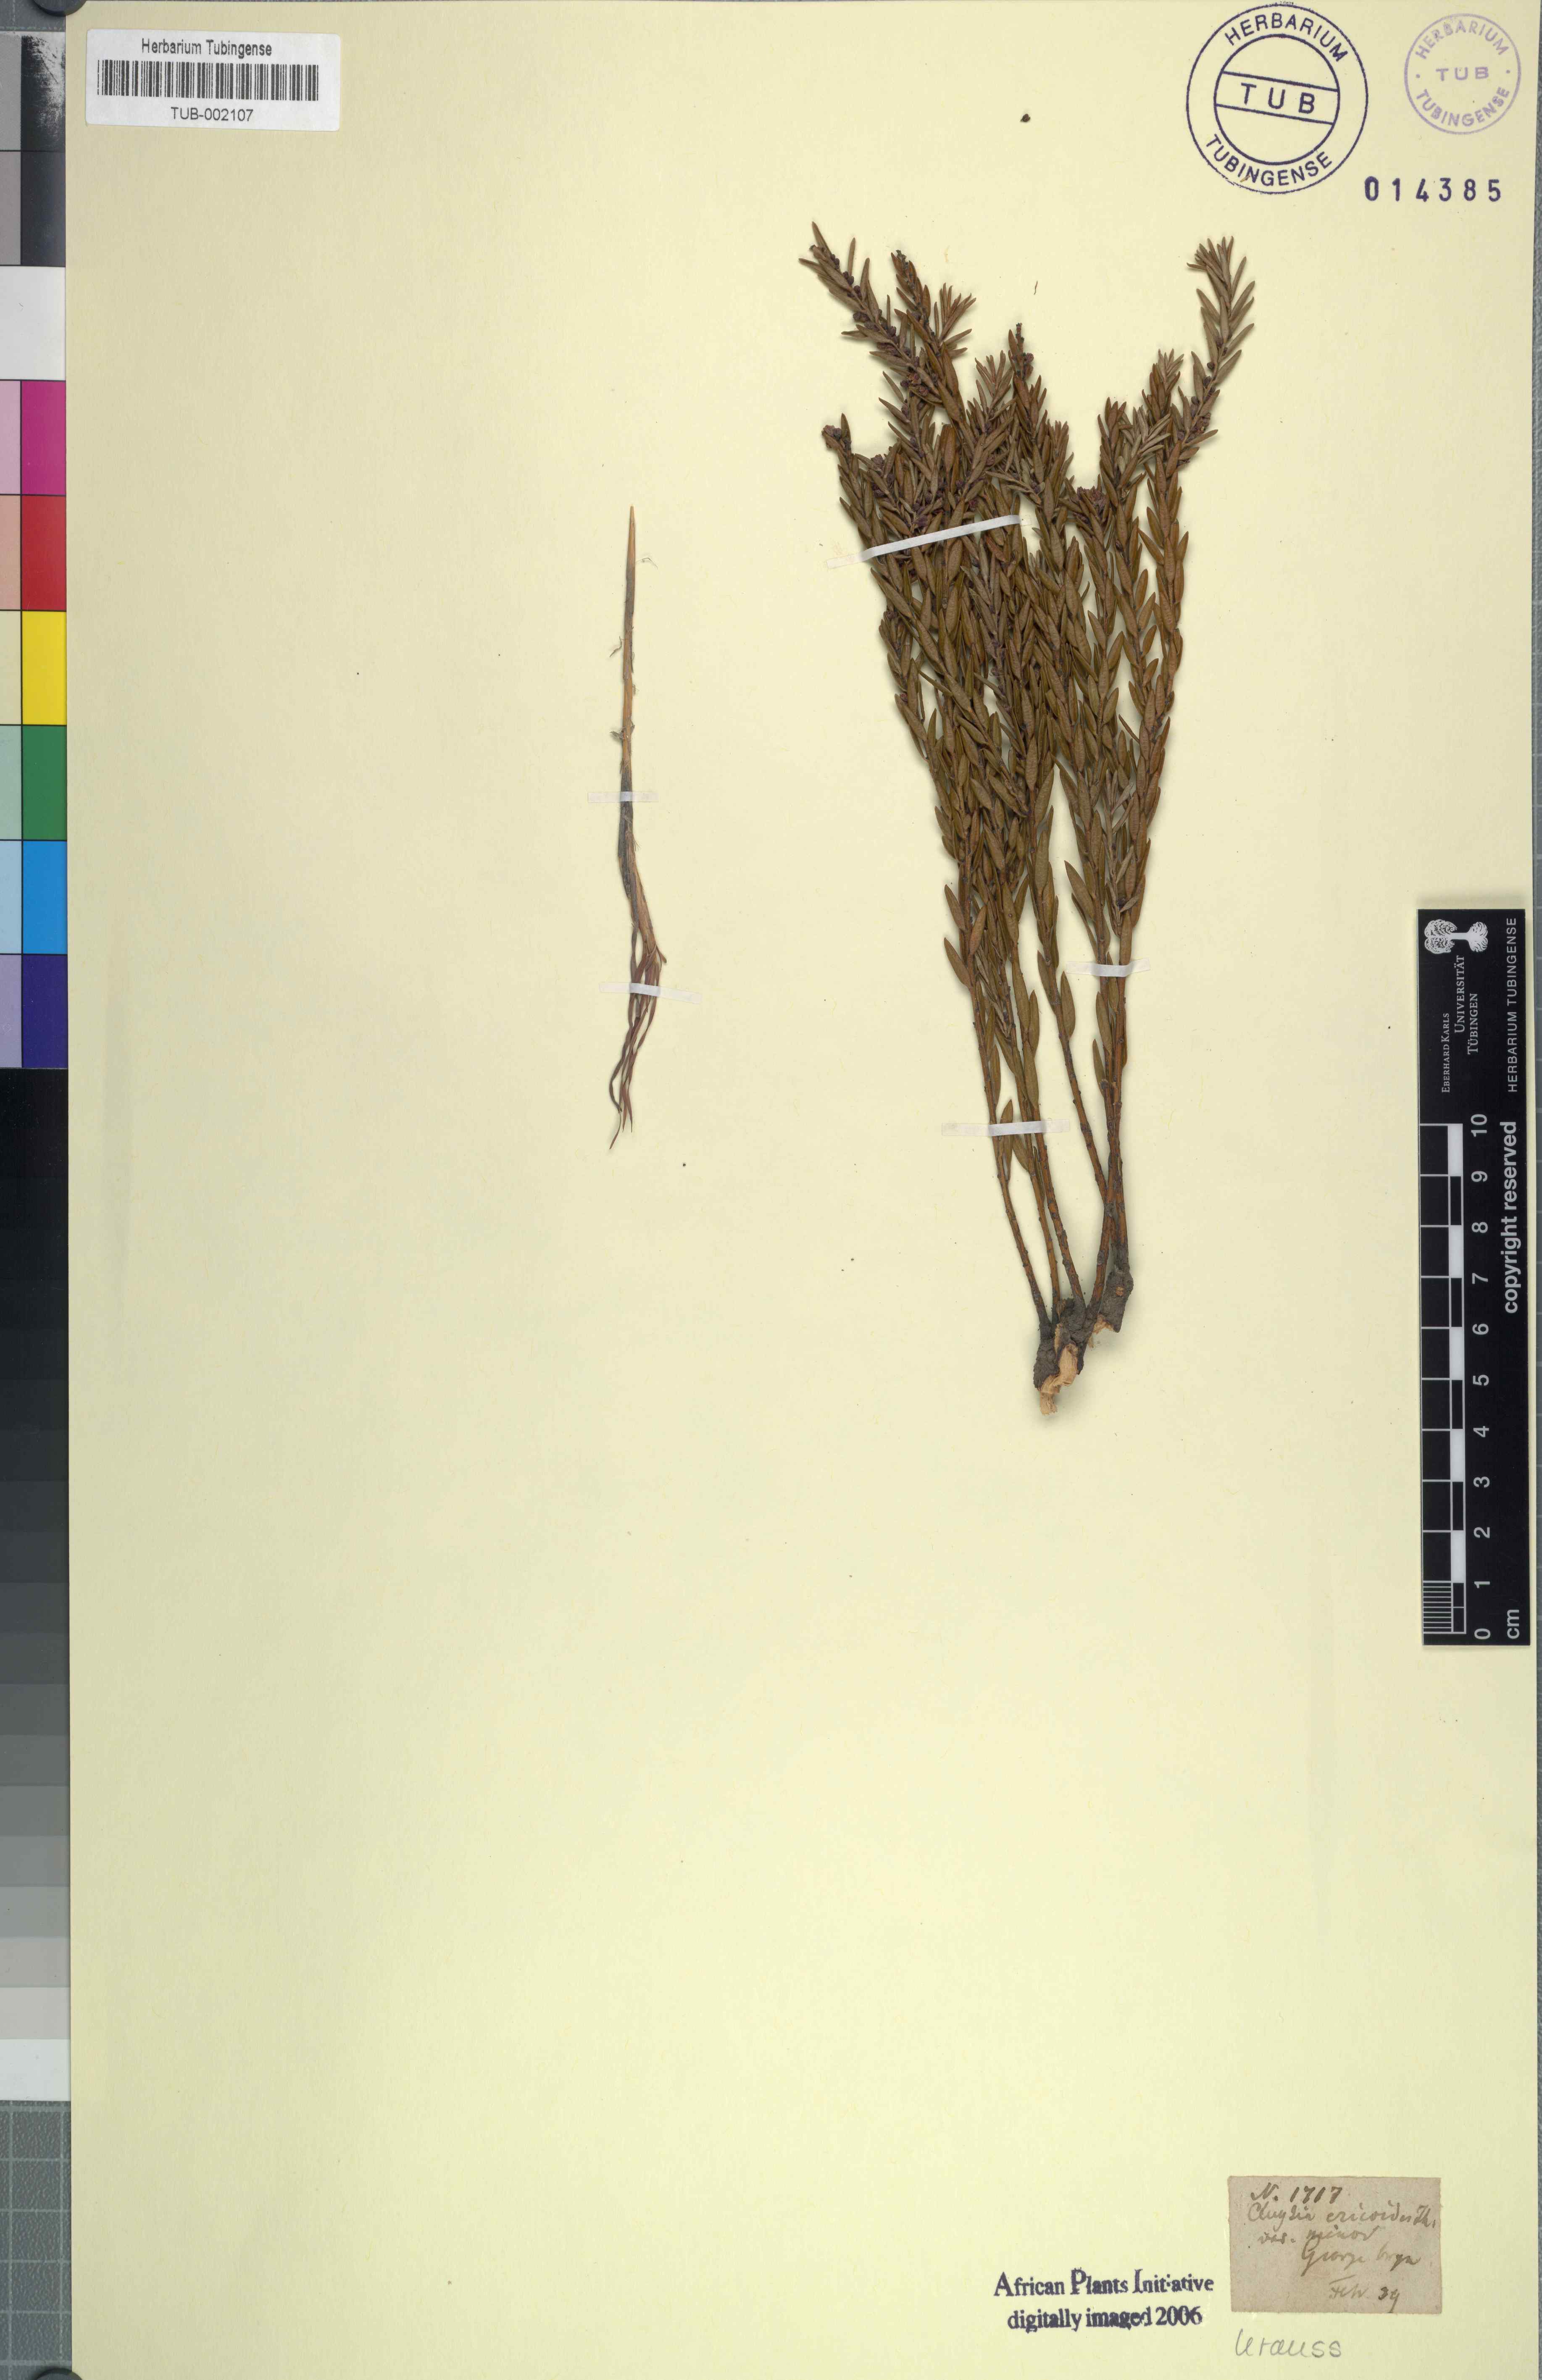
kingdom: Plantae
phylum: Tracheophyta
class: Magnoliopsida
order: Malpighiales
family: Peraceae
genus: Clutia
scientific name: Clutia ericoides
